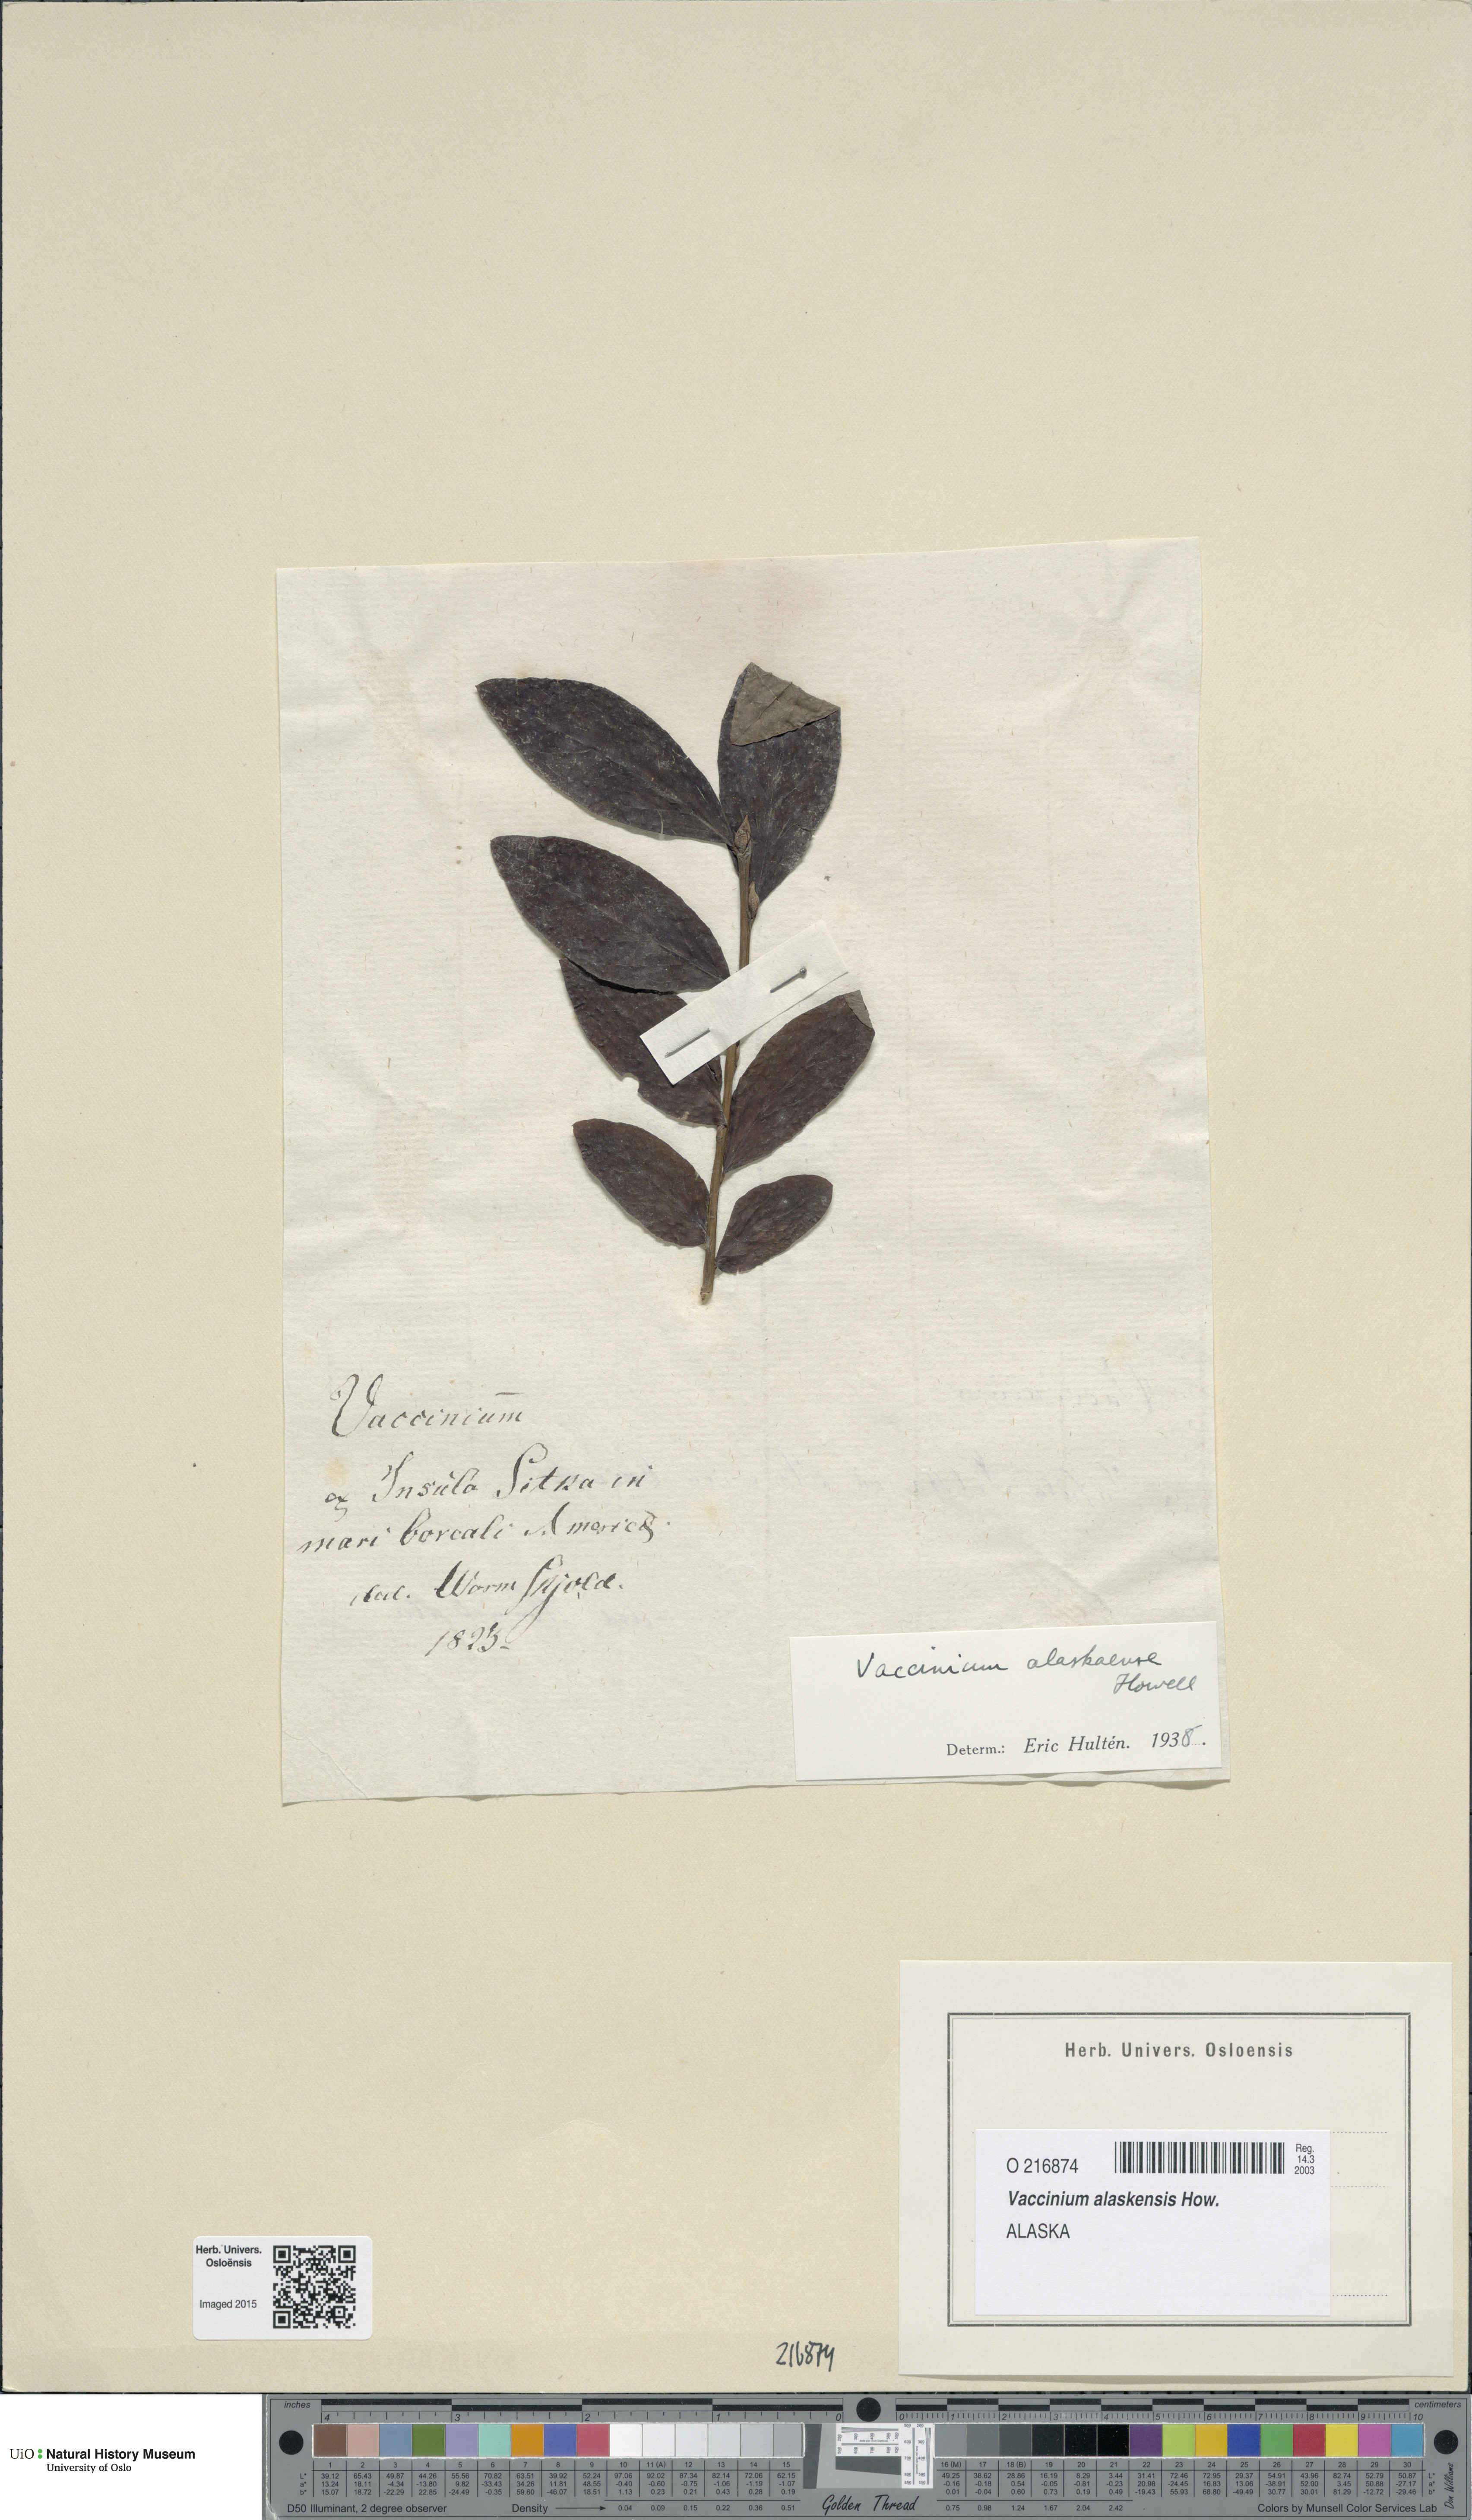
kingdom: Plantae
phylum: Tracheophyta
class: Magnoliopsida
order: Ericales
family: Ericaceae
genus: Vaccinium
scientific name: Vaccinium alaskensis
